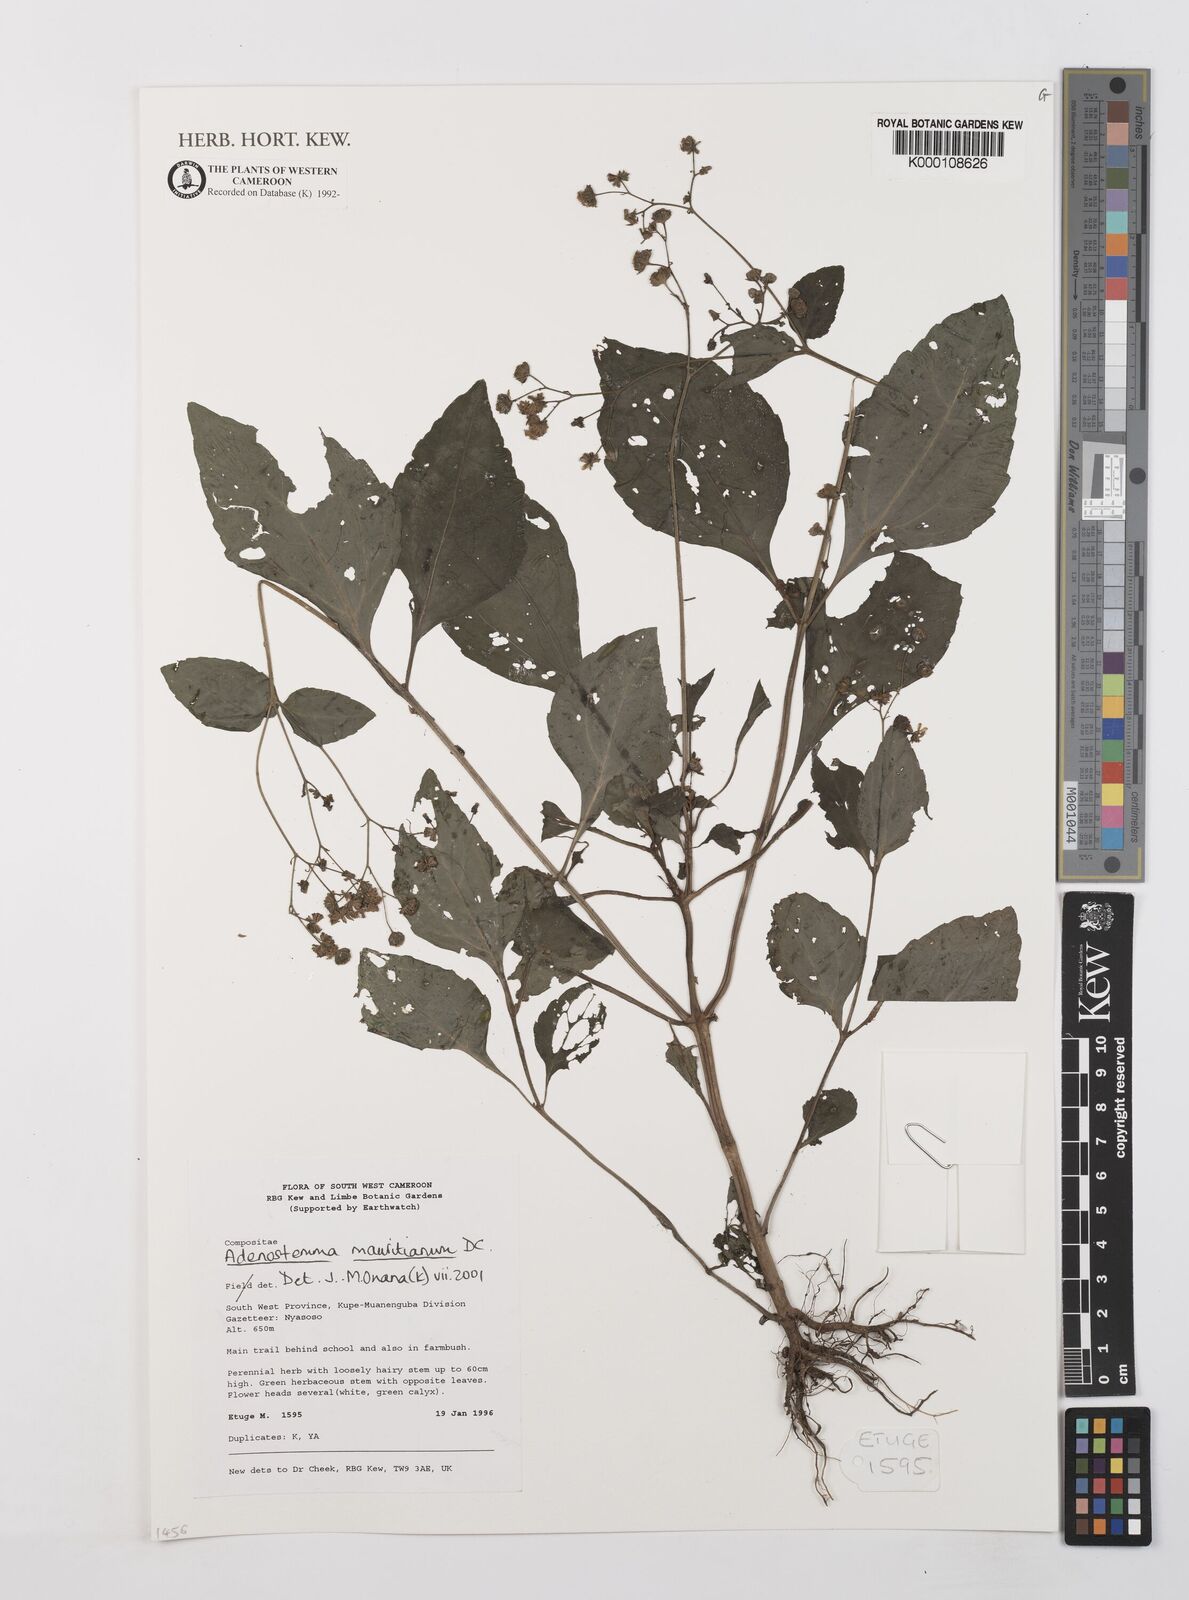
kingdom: Plantae
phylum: Tracheophyta
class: Magnoliopsida
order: Asterales
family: Asteraceae
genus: Adenostemma
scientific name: Adenostemma mauritianum
